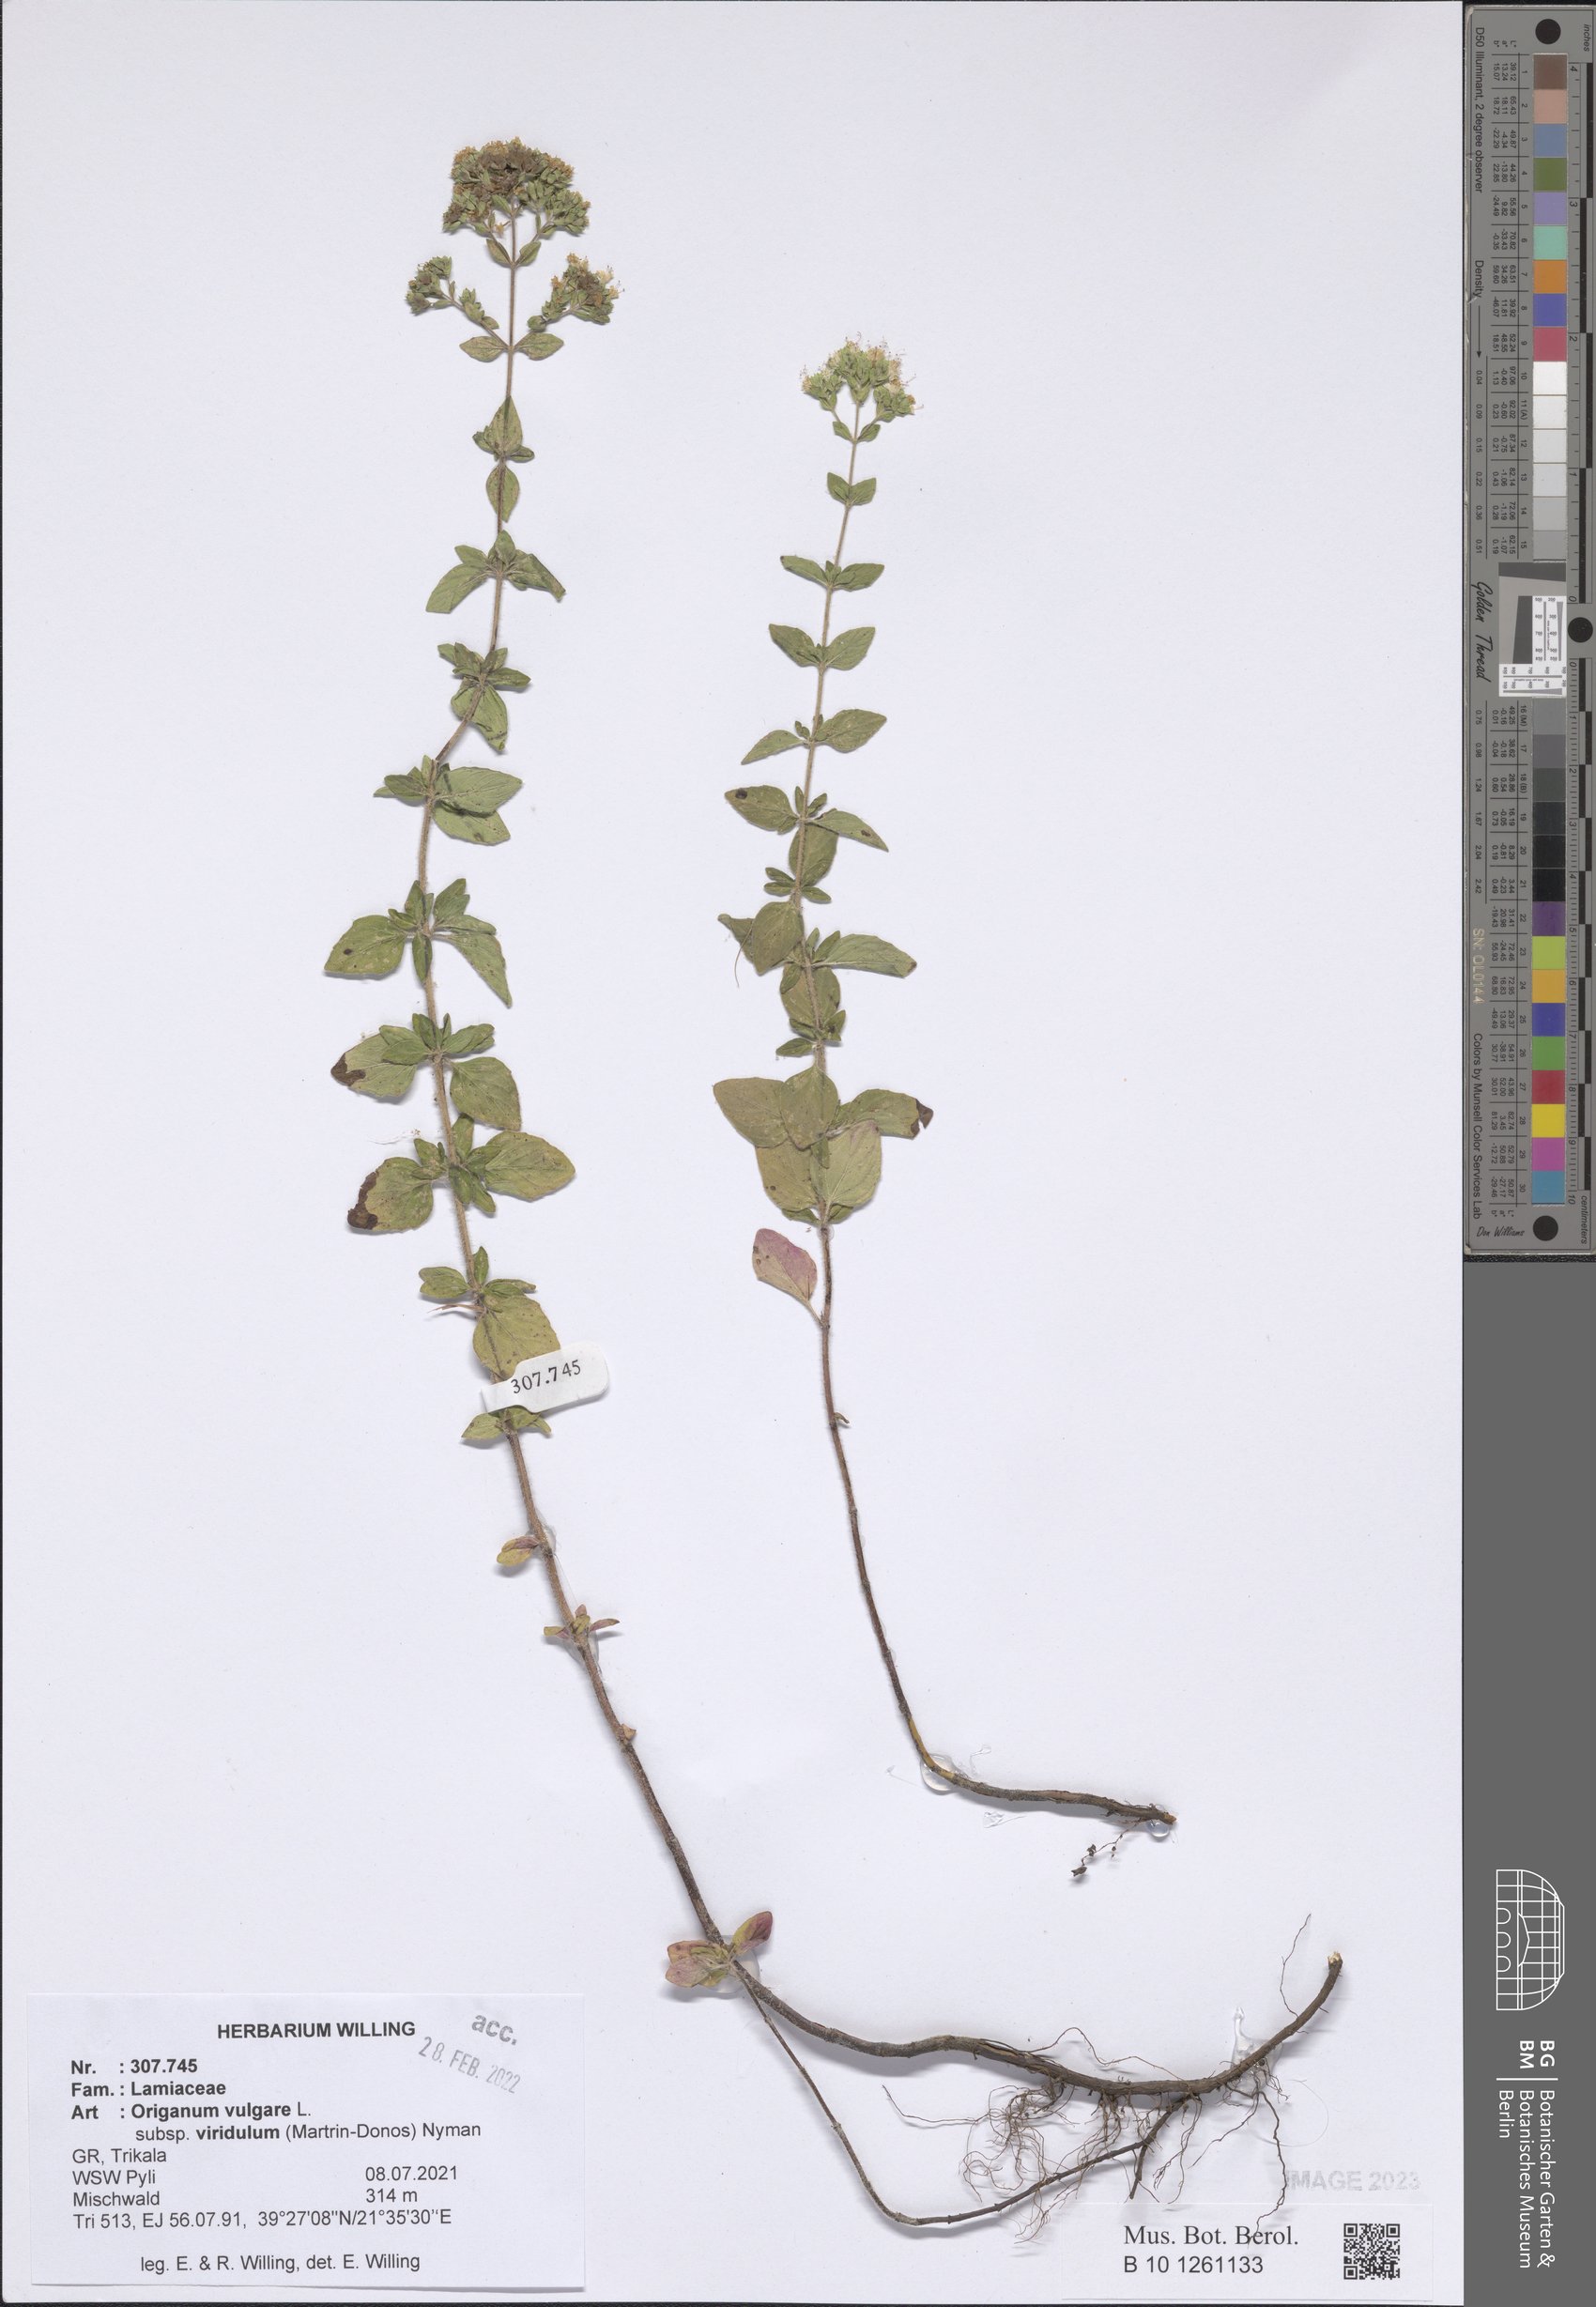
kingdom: Plantae
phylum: Tracheophyta
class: Magnoliopsida
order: Lamiales
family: Lamiaceae
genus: Origanum
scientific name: Origanum vulgare
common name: Wild marjoram
